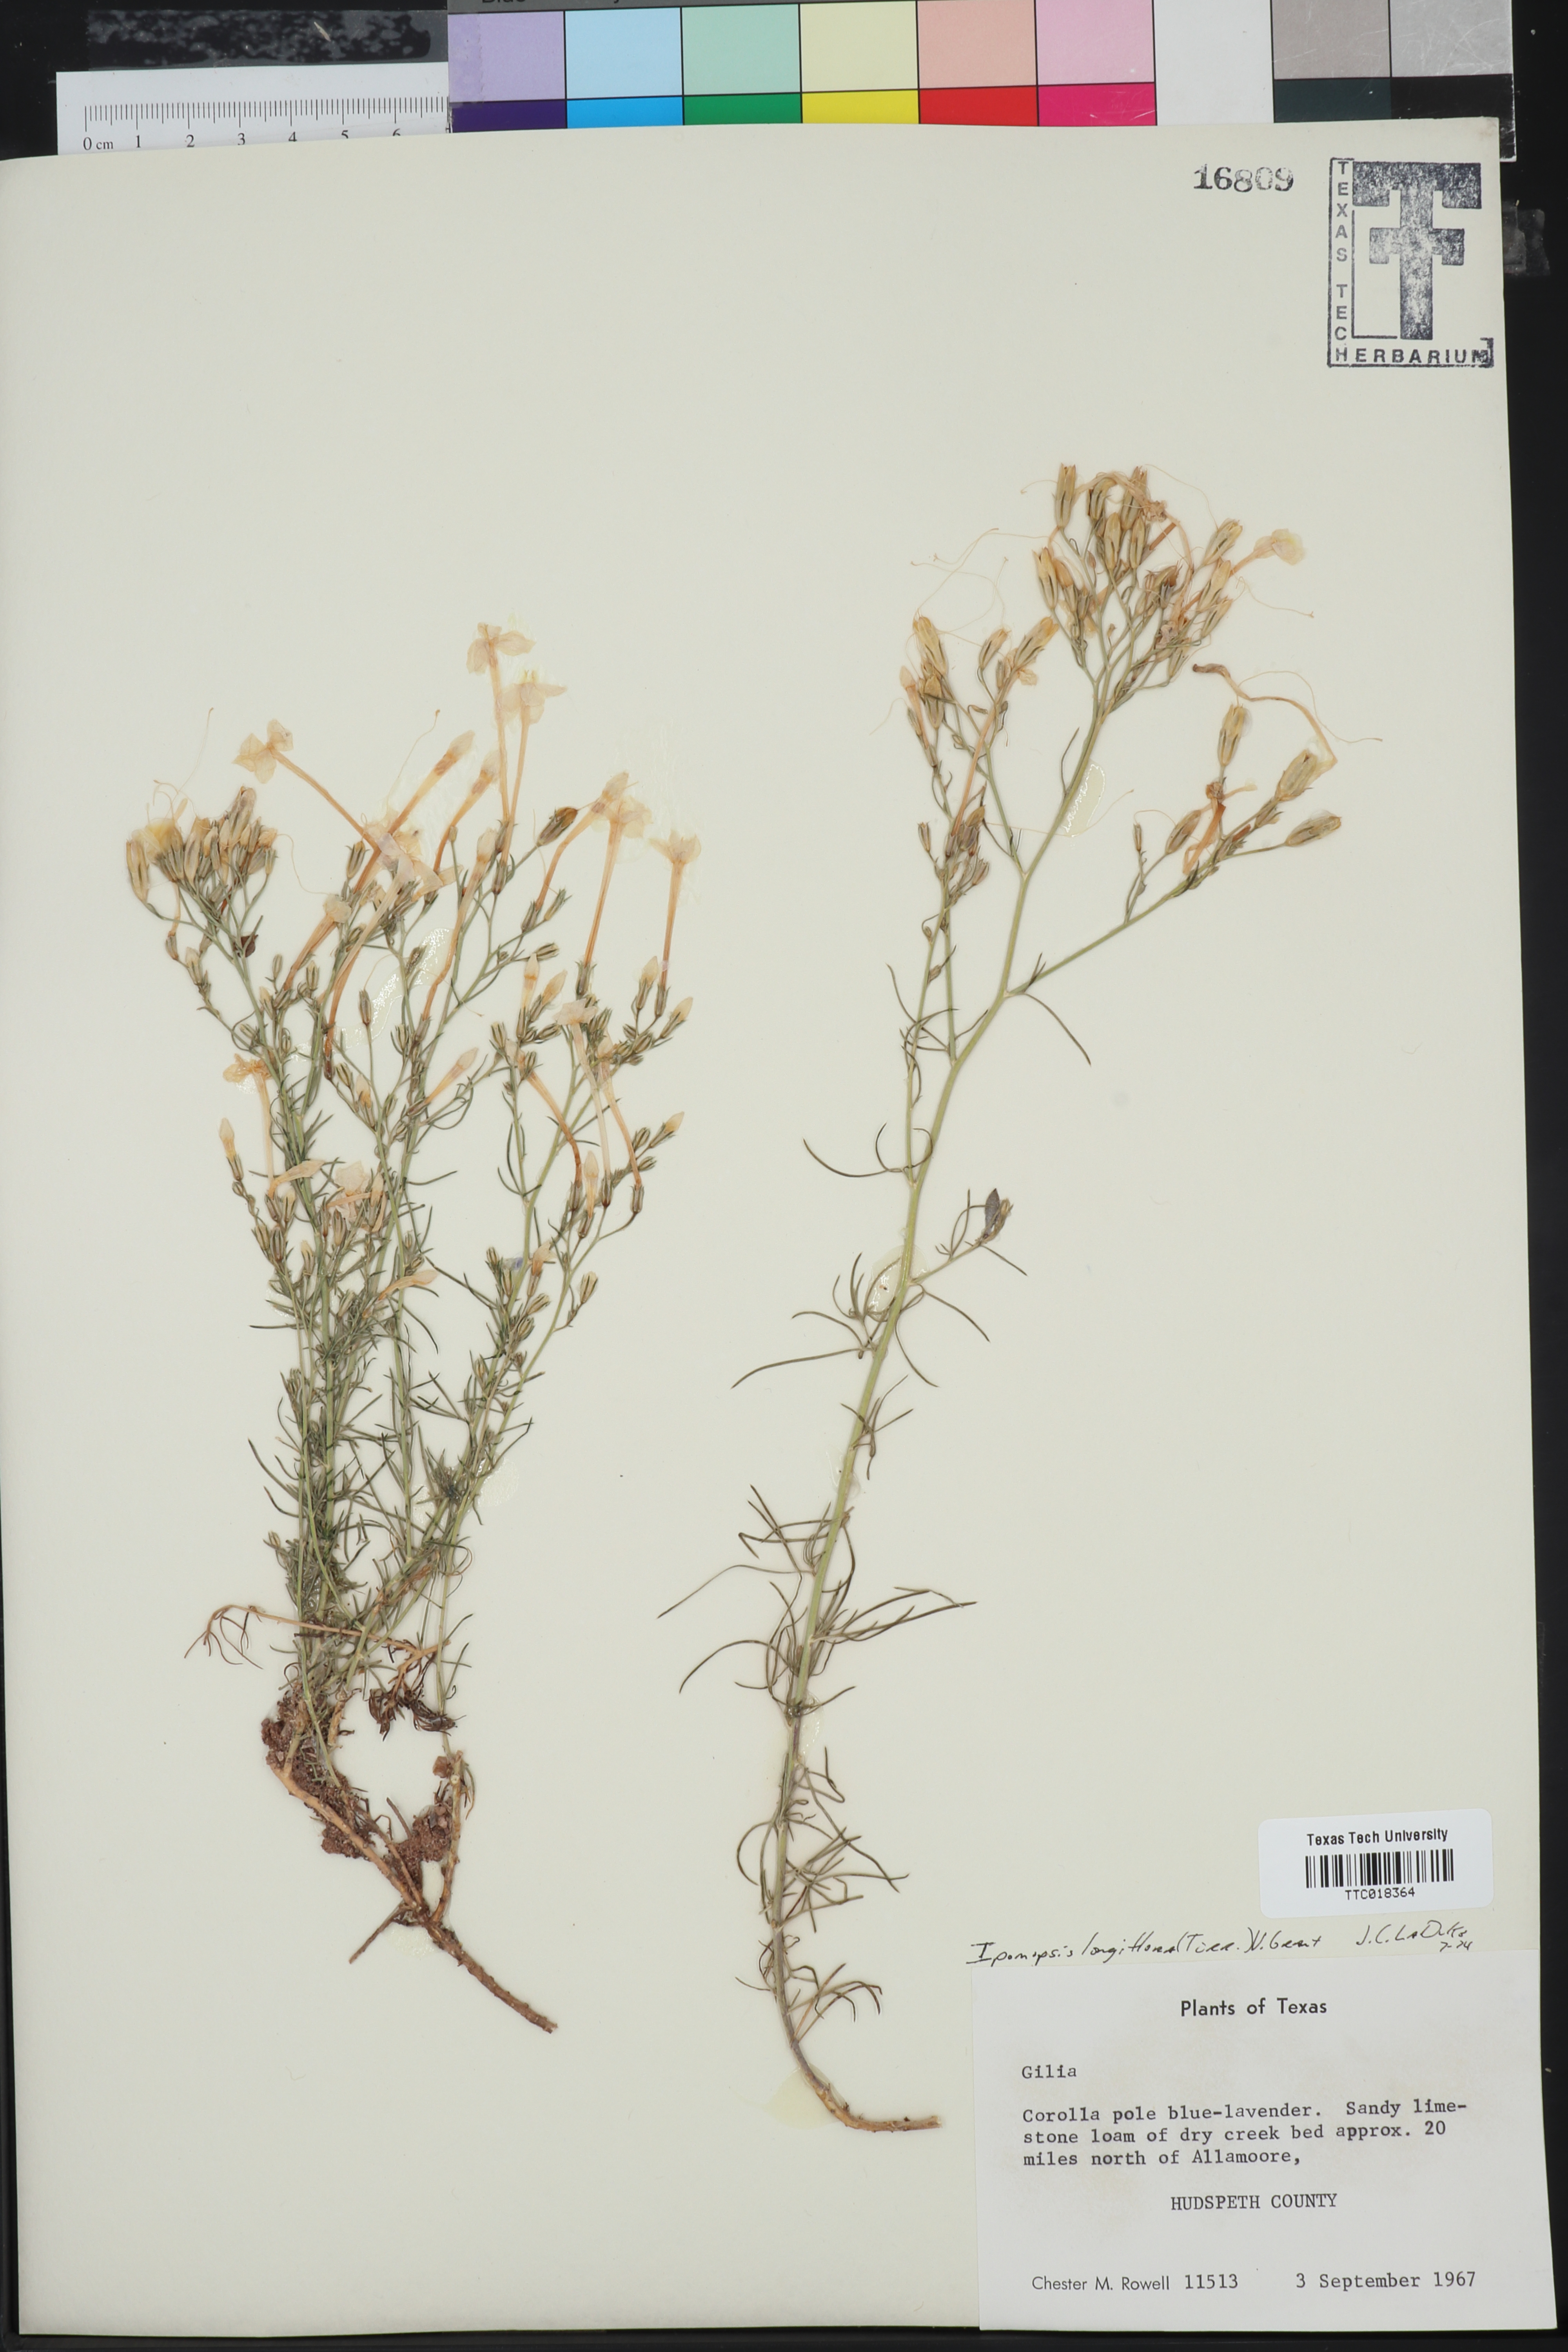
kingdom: Plantae
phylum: Tracheophyta
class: Magnoliopsida
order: Ericales
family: Polemoniaceae
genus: Ipomopsis
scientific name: Ipomopsis longiflora
